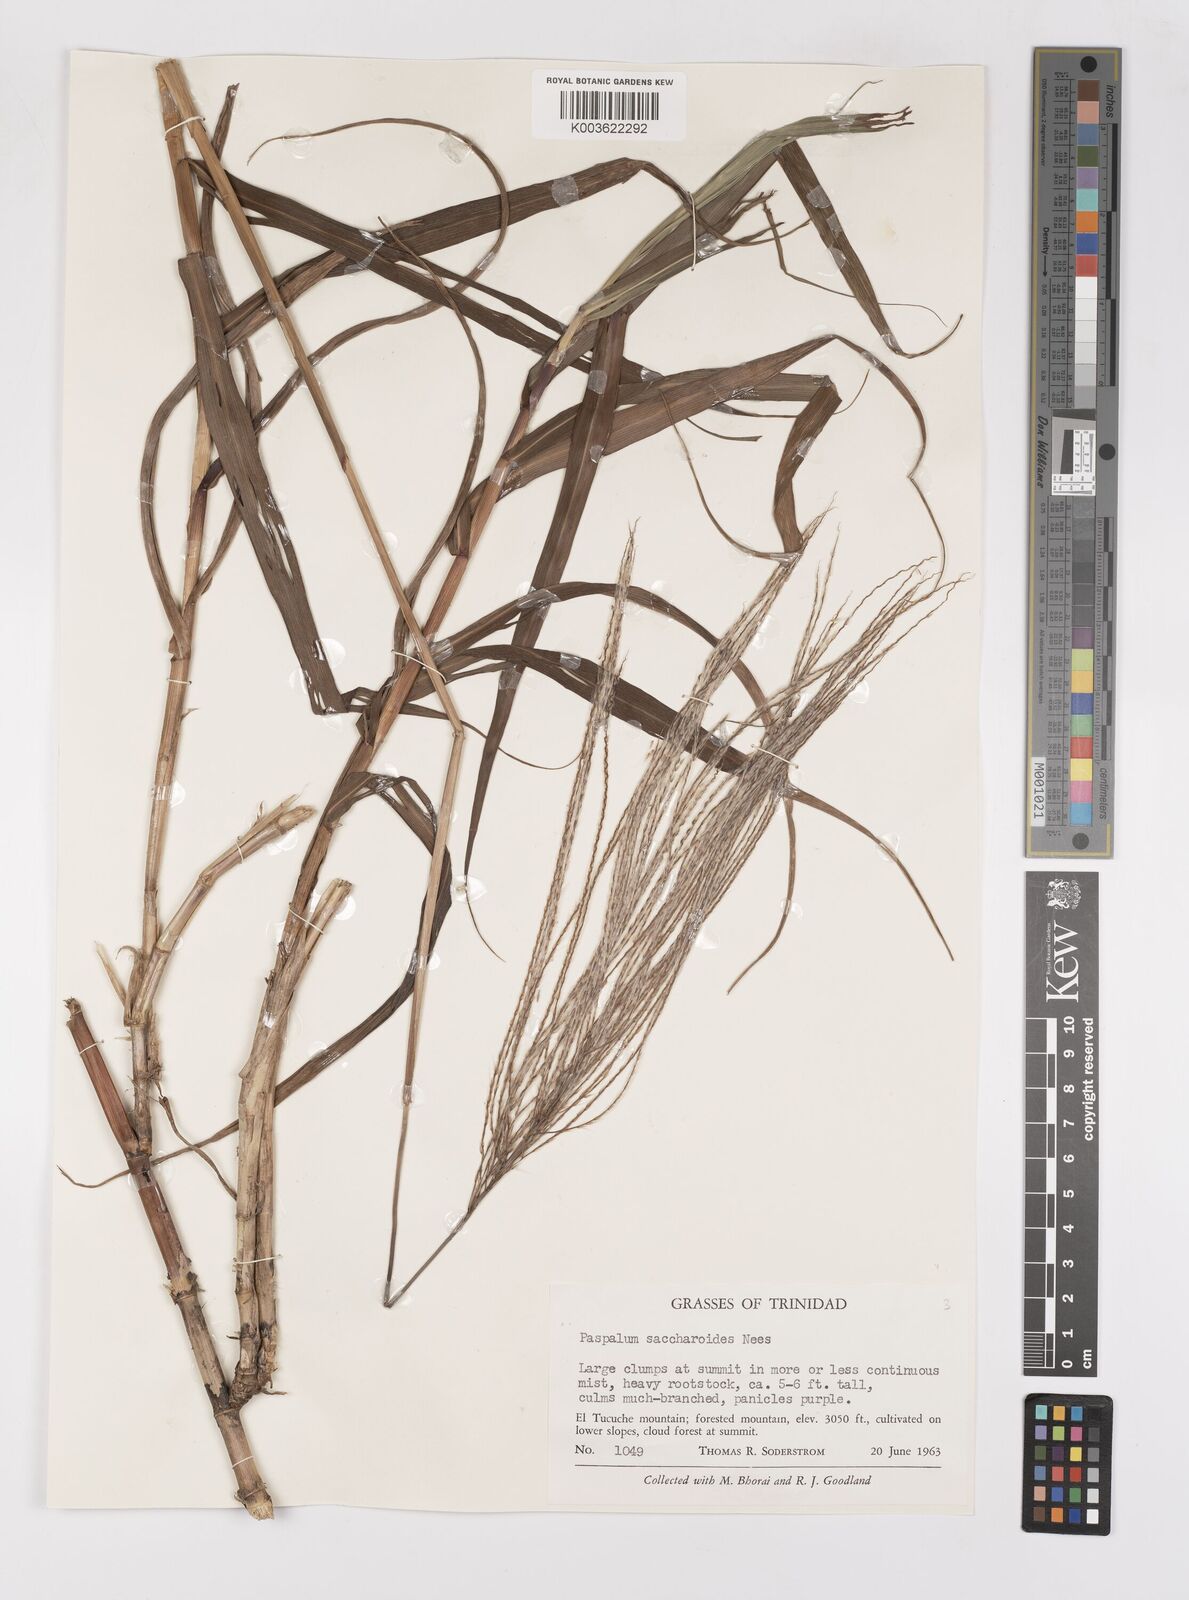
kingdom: Plantae
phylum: Tracheophyta
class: Liliopsida
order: Poales
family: Poaceae
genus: Paspalum
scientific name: Paspalum saccharoides
